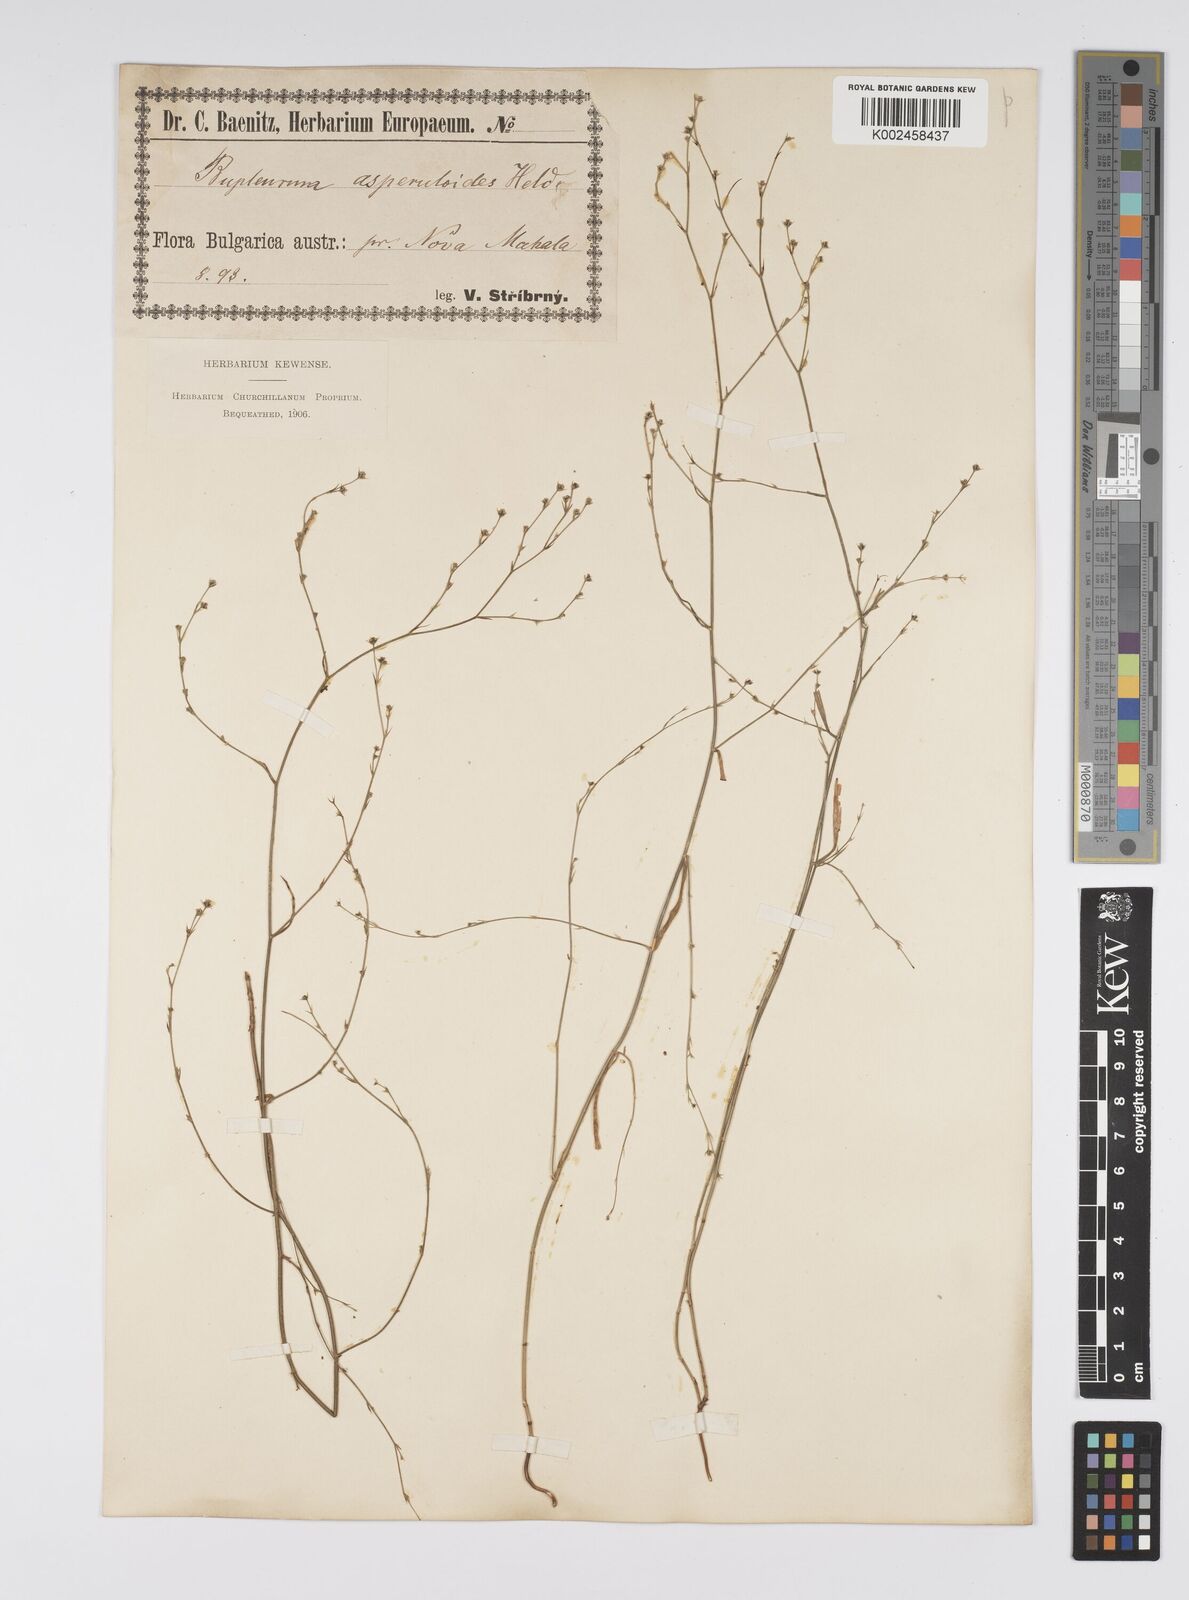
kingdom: Plantae
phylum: Tracheophyta
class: Magnoliopsida
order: Apiales
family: Apiaceae
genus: Bupleurum
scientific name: Bupleurum asperuloides
